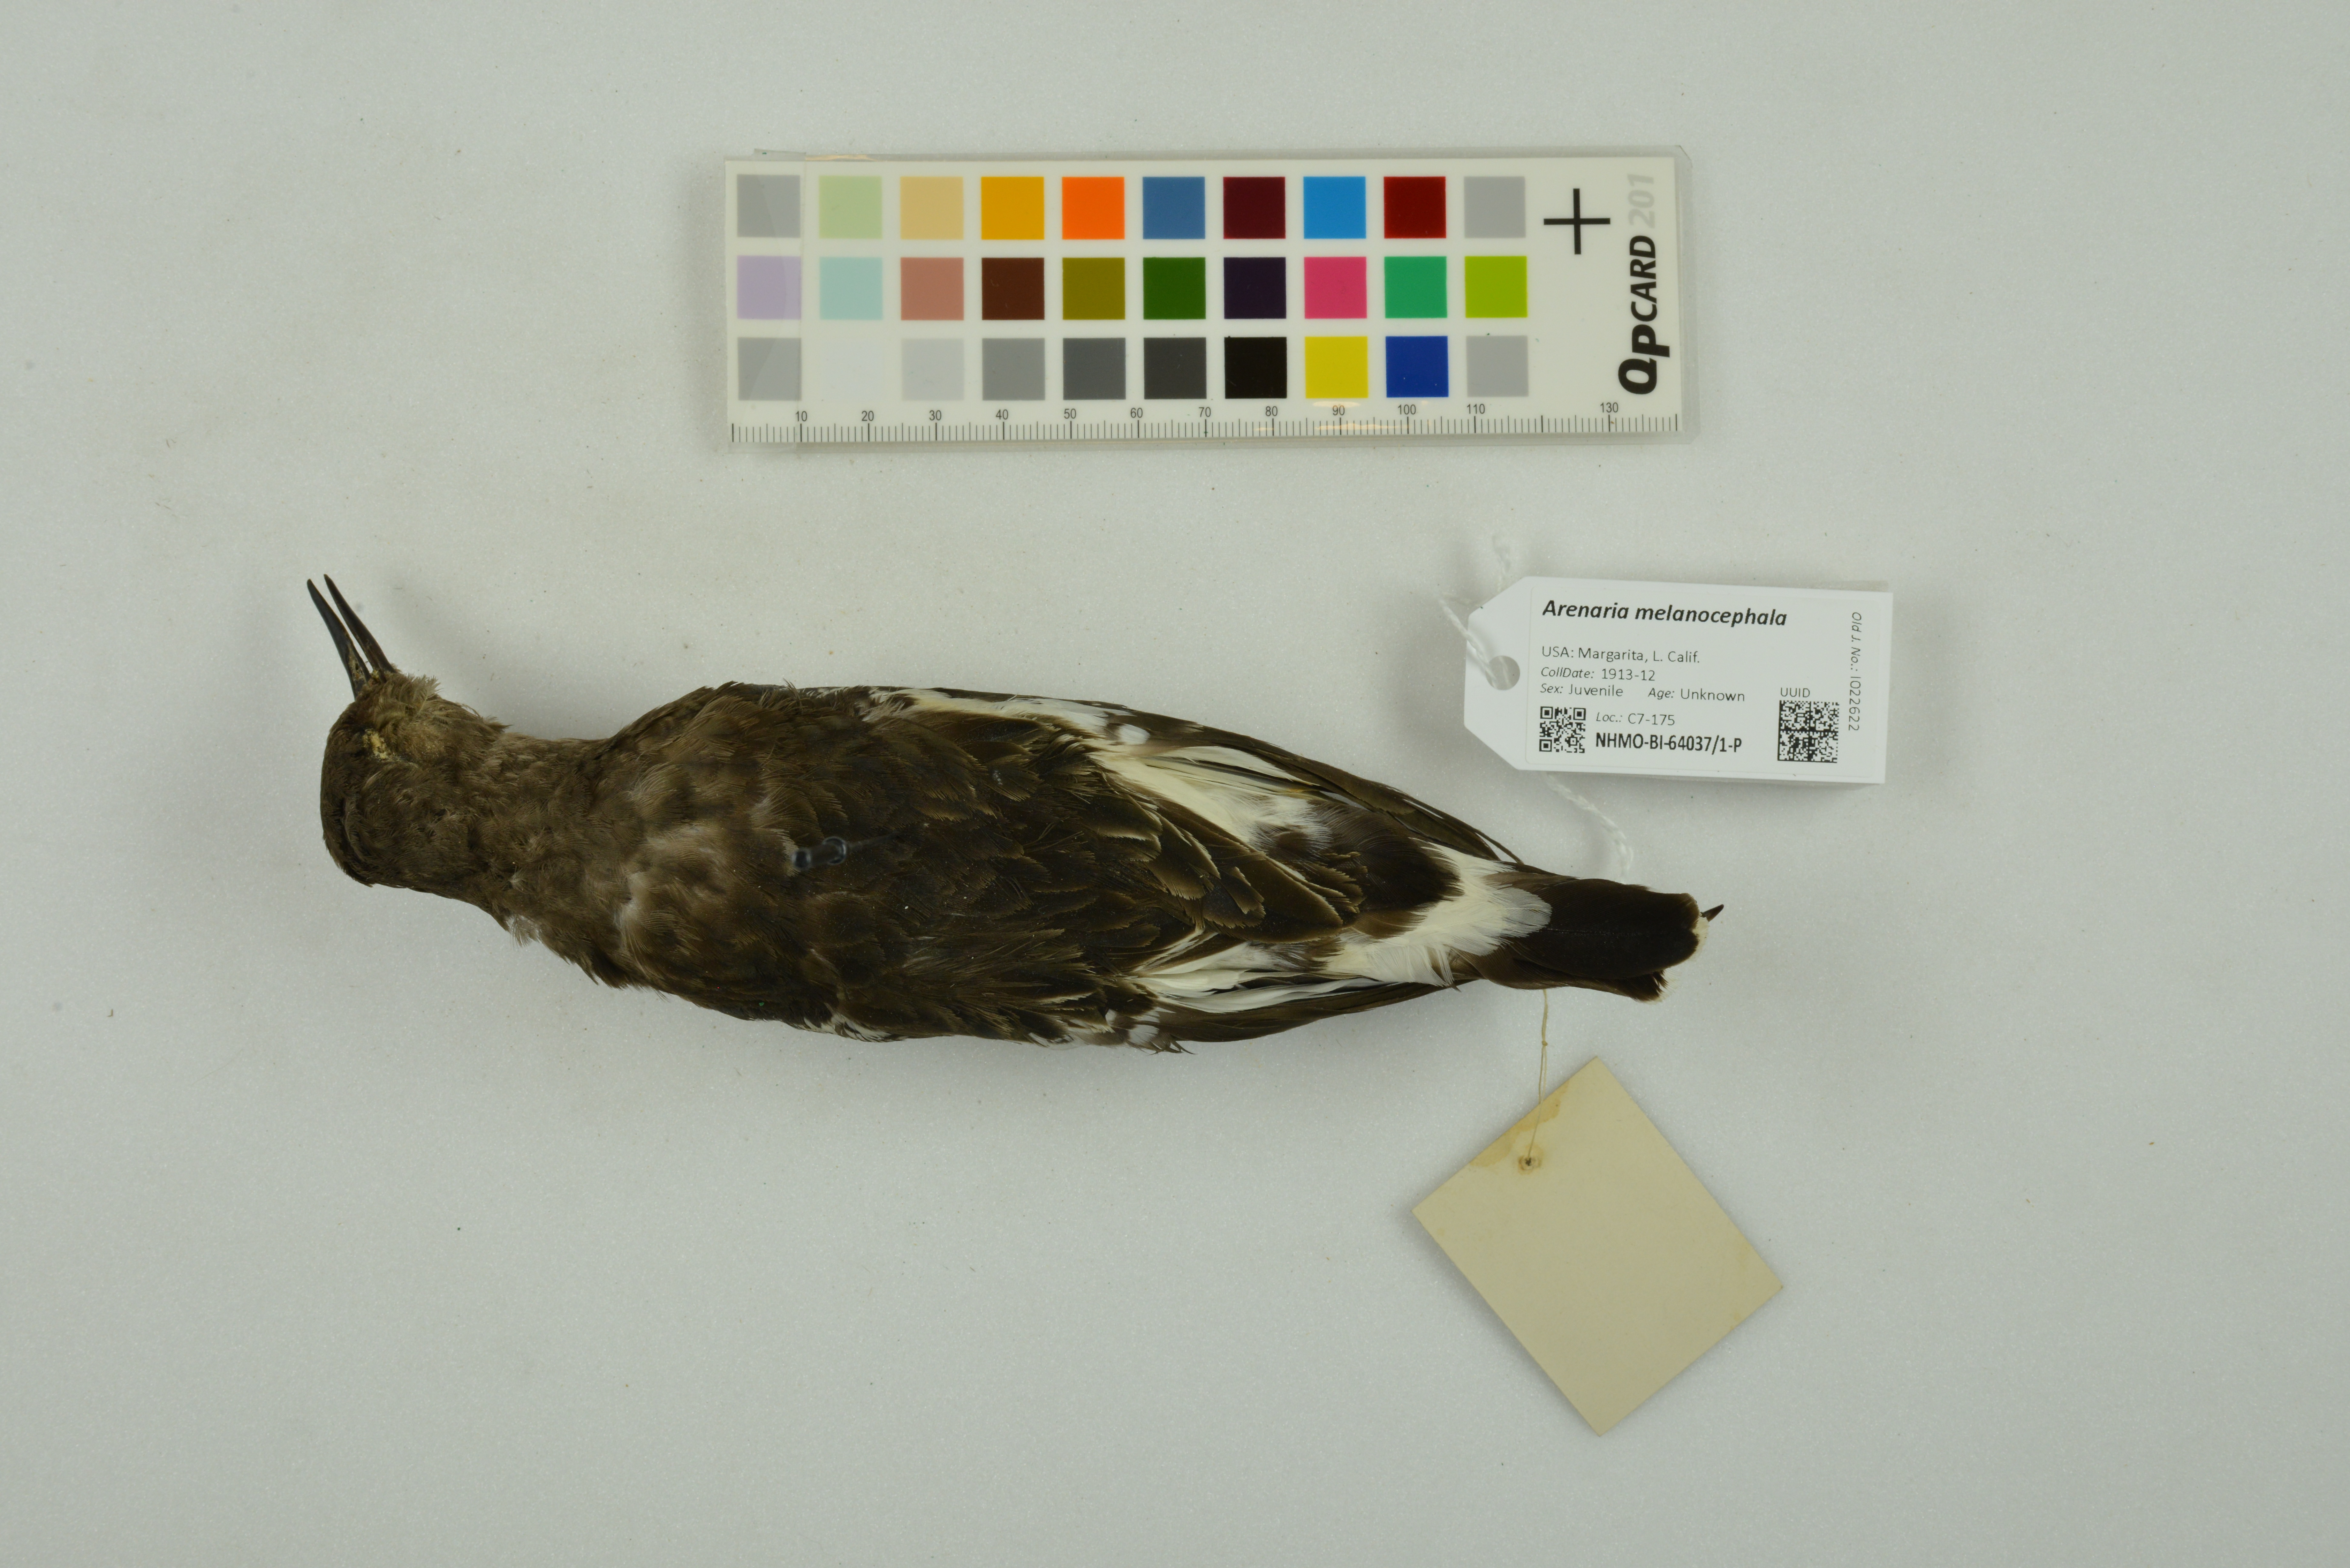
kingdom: Animalia
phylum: Chordata
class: Aves
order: Charadriiformes
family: Scolopacidae
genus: Arenaria
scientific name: Arenaria melanocephala
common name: Black turnstone
